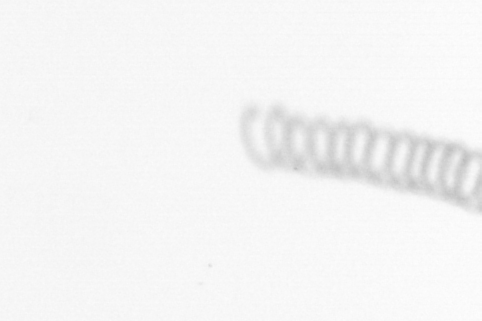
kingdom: Chromista
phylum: Ochrophyta
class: Bacillariophyceae
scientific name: Bacillariophyceae
